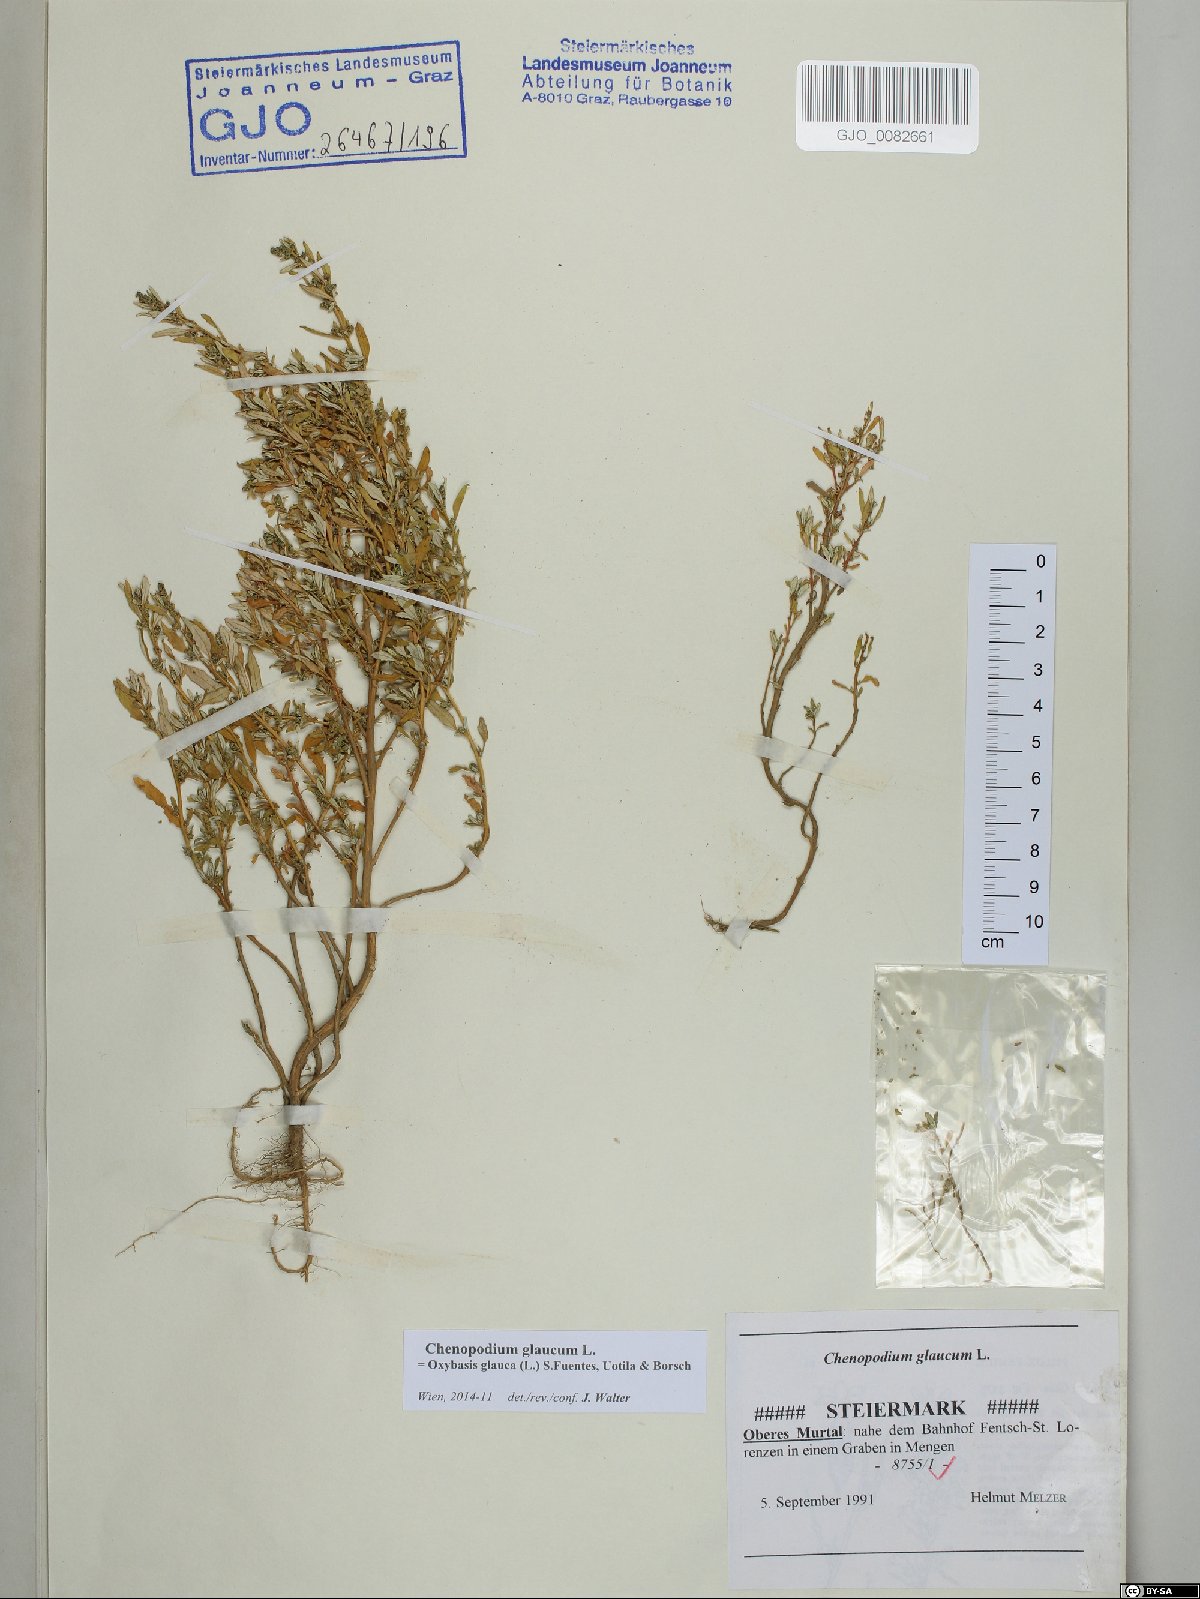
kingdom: Plantae
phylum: Tracheophyta
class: Magnoliopsida
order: Caryophyllales
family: Amaranthaceae
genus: Oxybasis
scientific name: Oxybasis glauca
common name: Glaucous goosefoot
